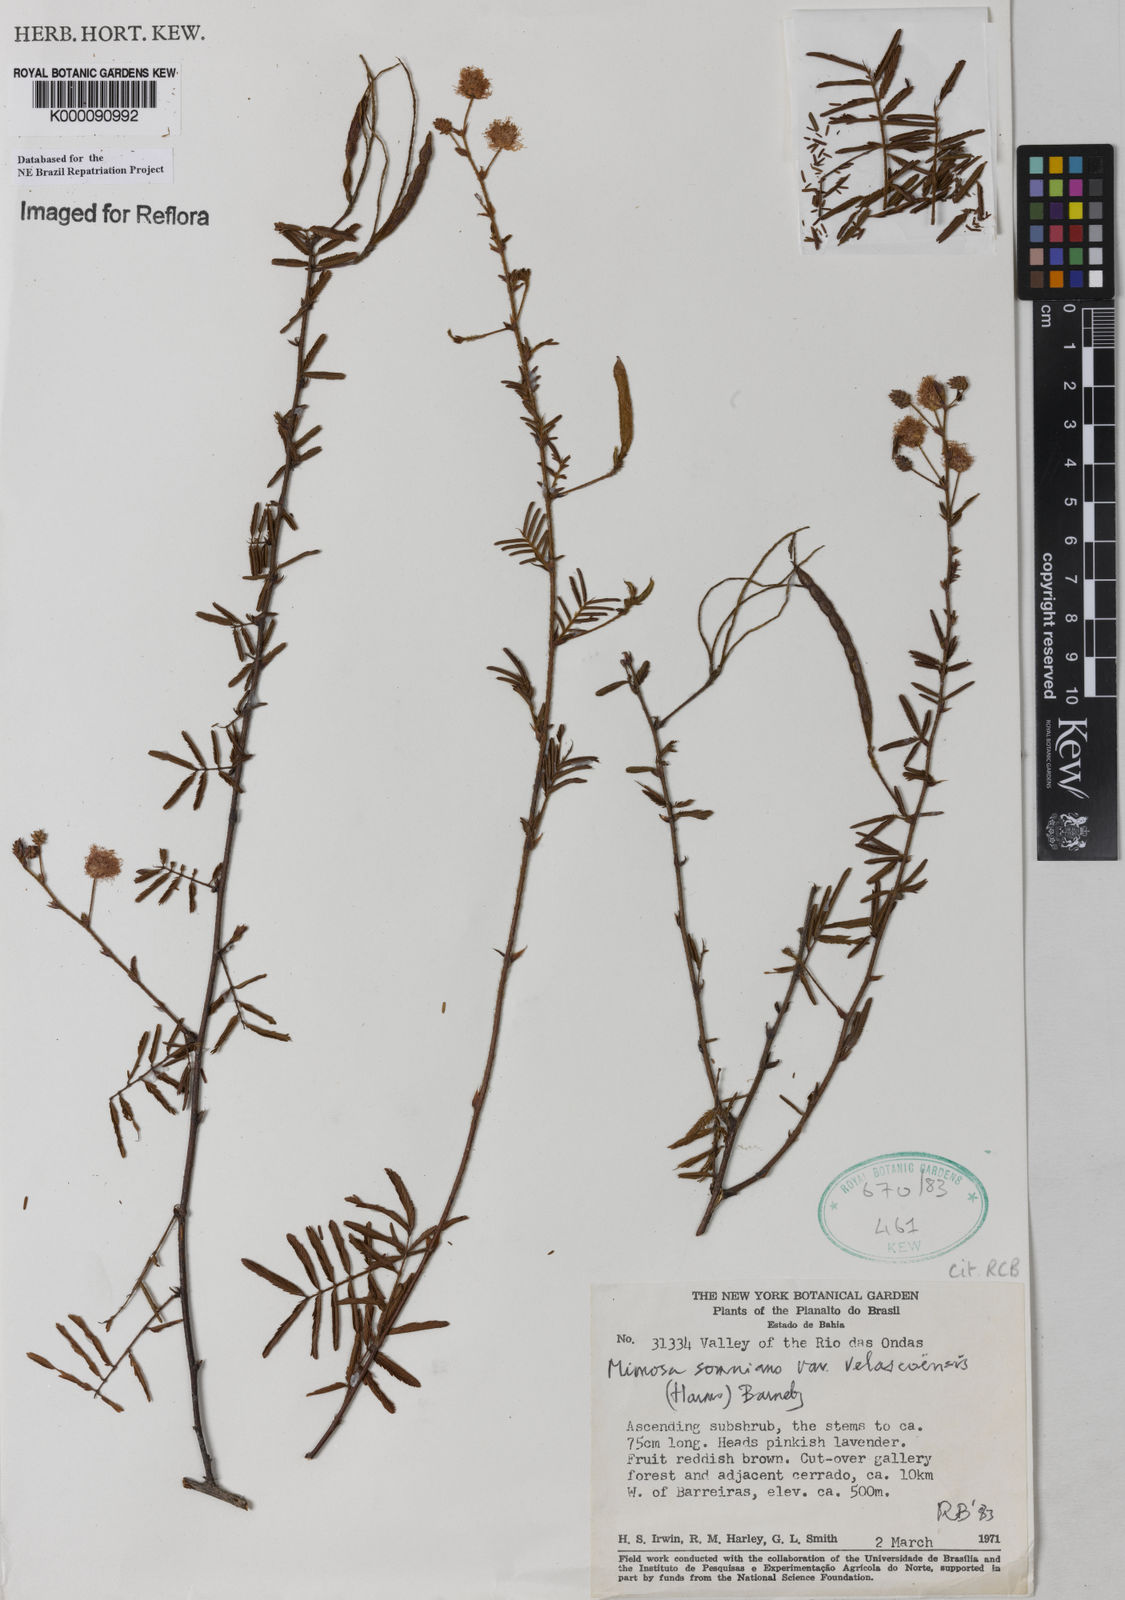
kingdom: Plantae
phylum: Tracheophyta
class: Magnoliopsida
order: Fabales
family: Fabaceae
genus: Mimosa
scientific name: Mimosa somnians
